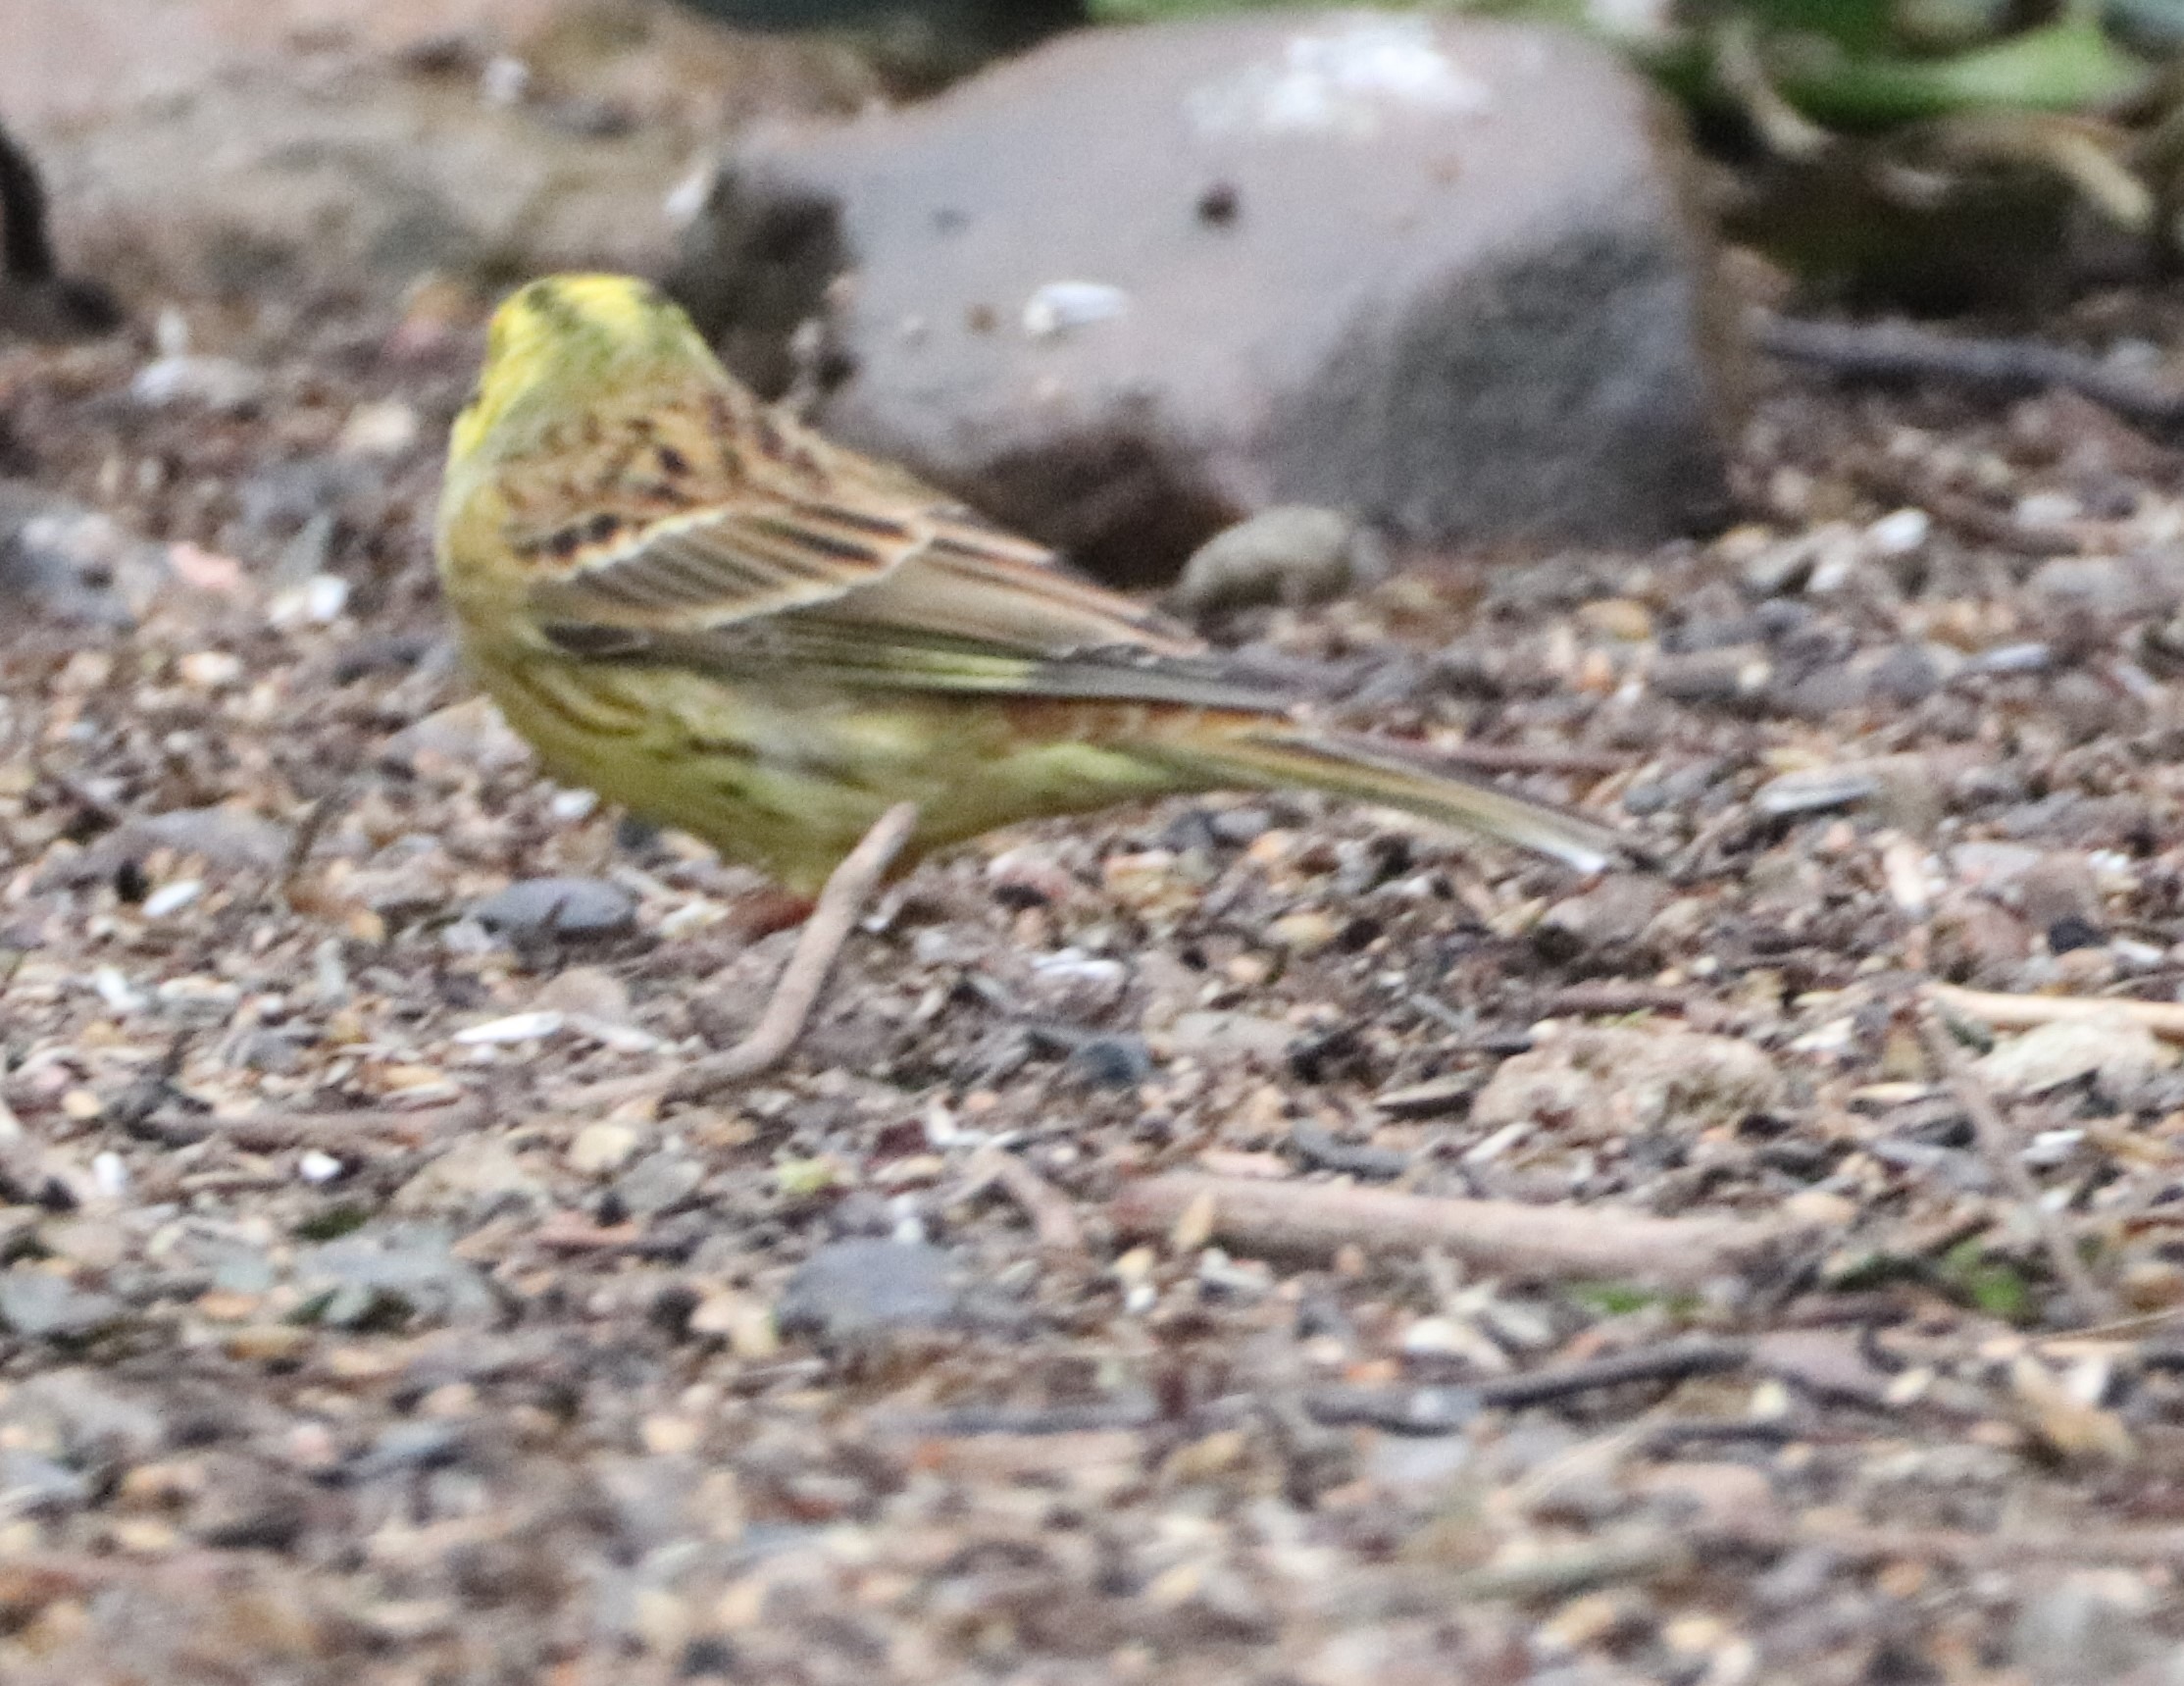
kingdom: Animalia
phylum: Chordata
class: Aves
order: Passeriformes
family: Emberizidae
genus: Emberiza
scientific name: Emberiza citrinella
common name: Gulspurv
